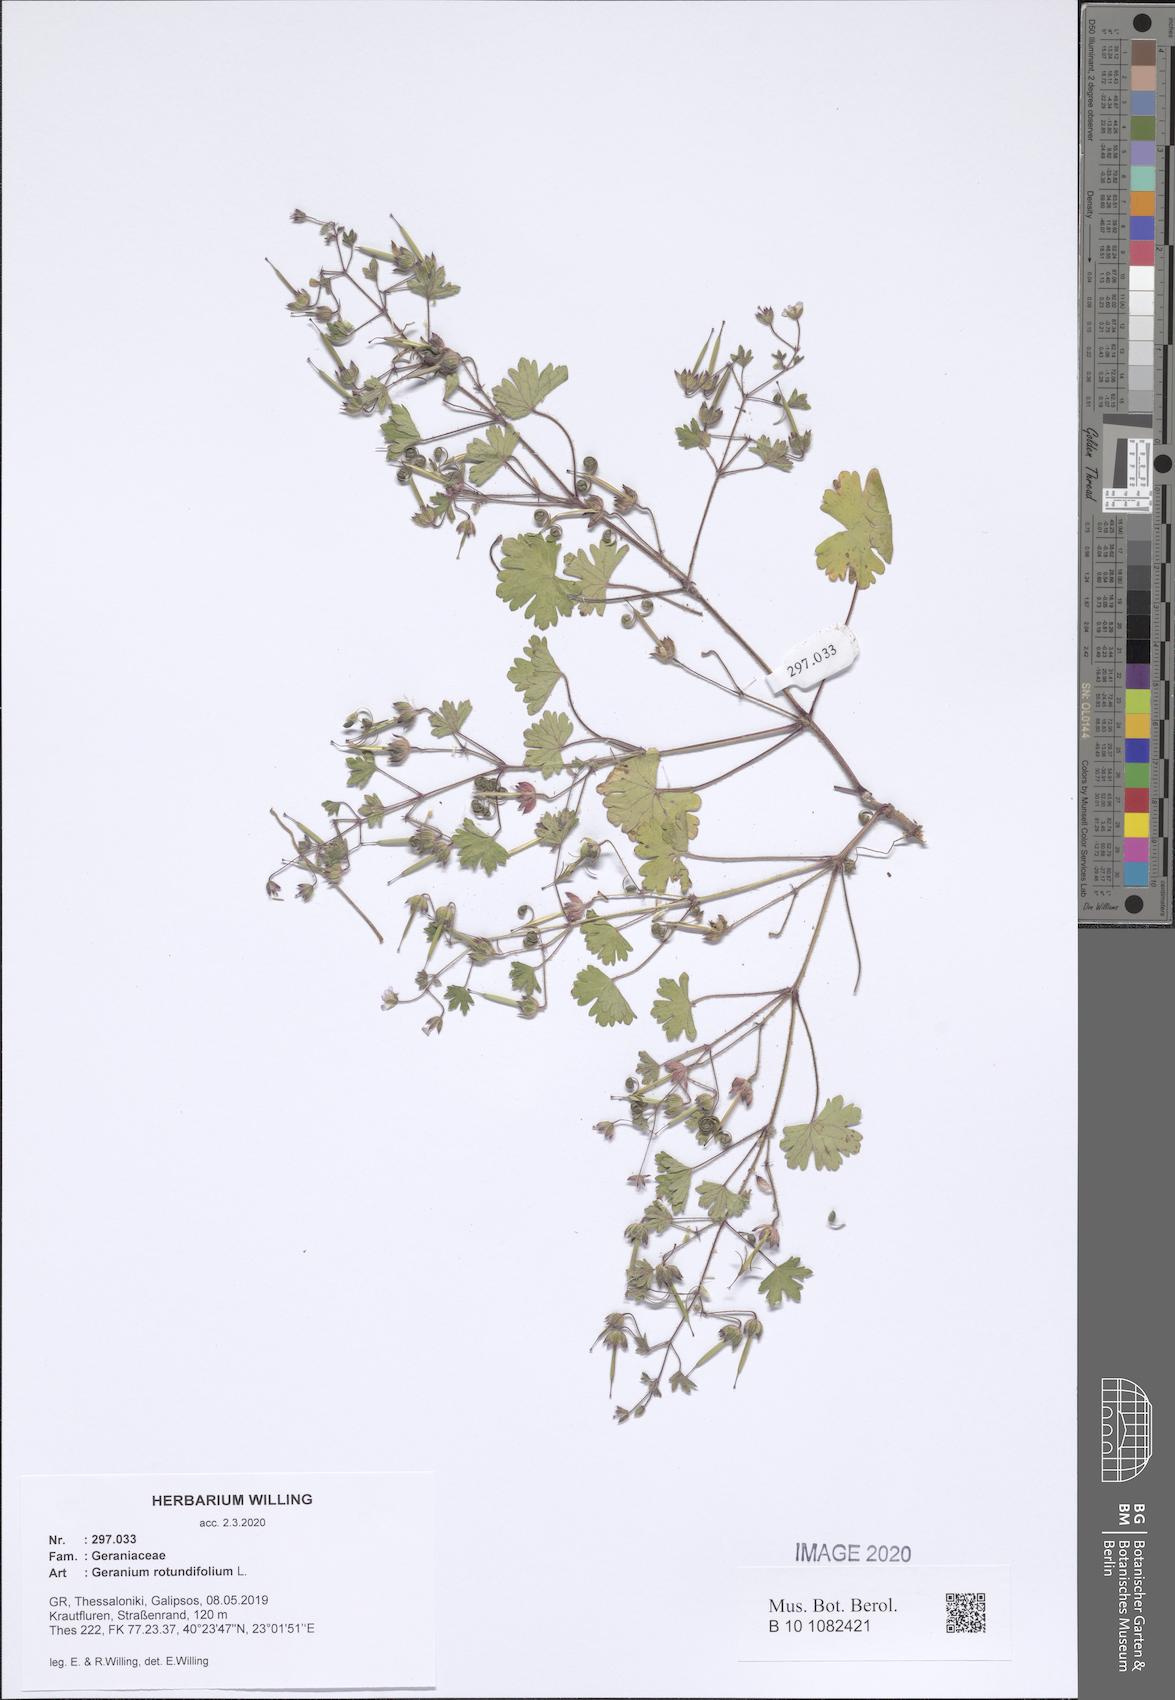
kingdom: Plantae
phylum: Tracheophyta
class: Magnoliopsida
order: Geraniales
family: Geraniaceae
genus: Geranium
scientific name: Geranium rotundifolium
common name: Round-leaved crane's-bill
